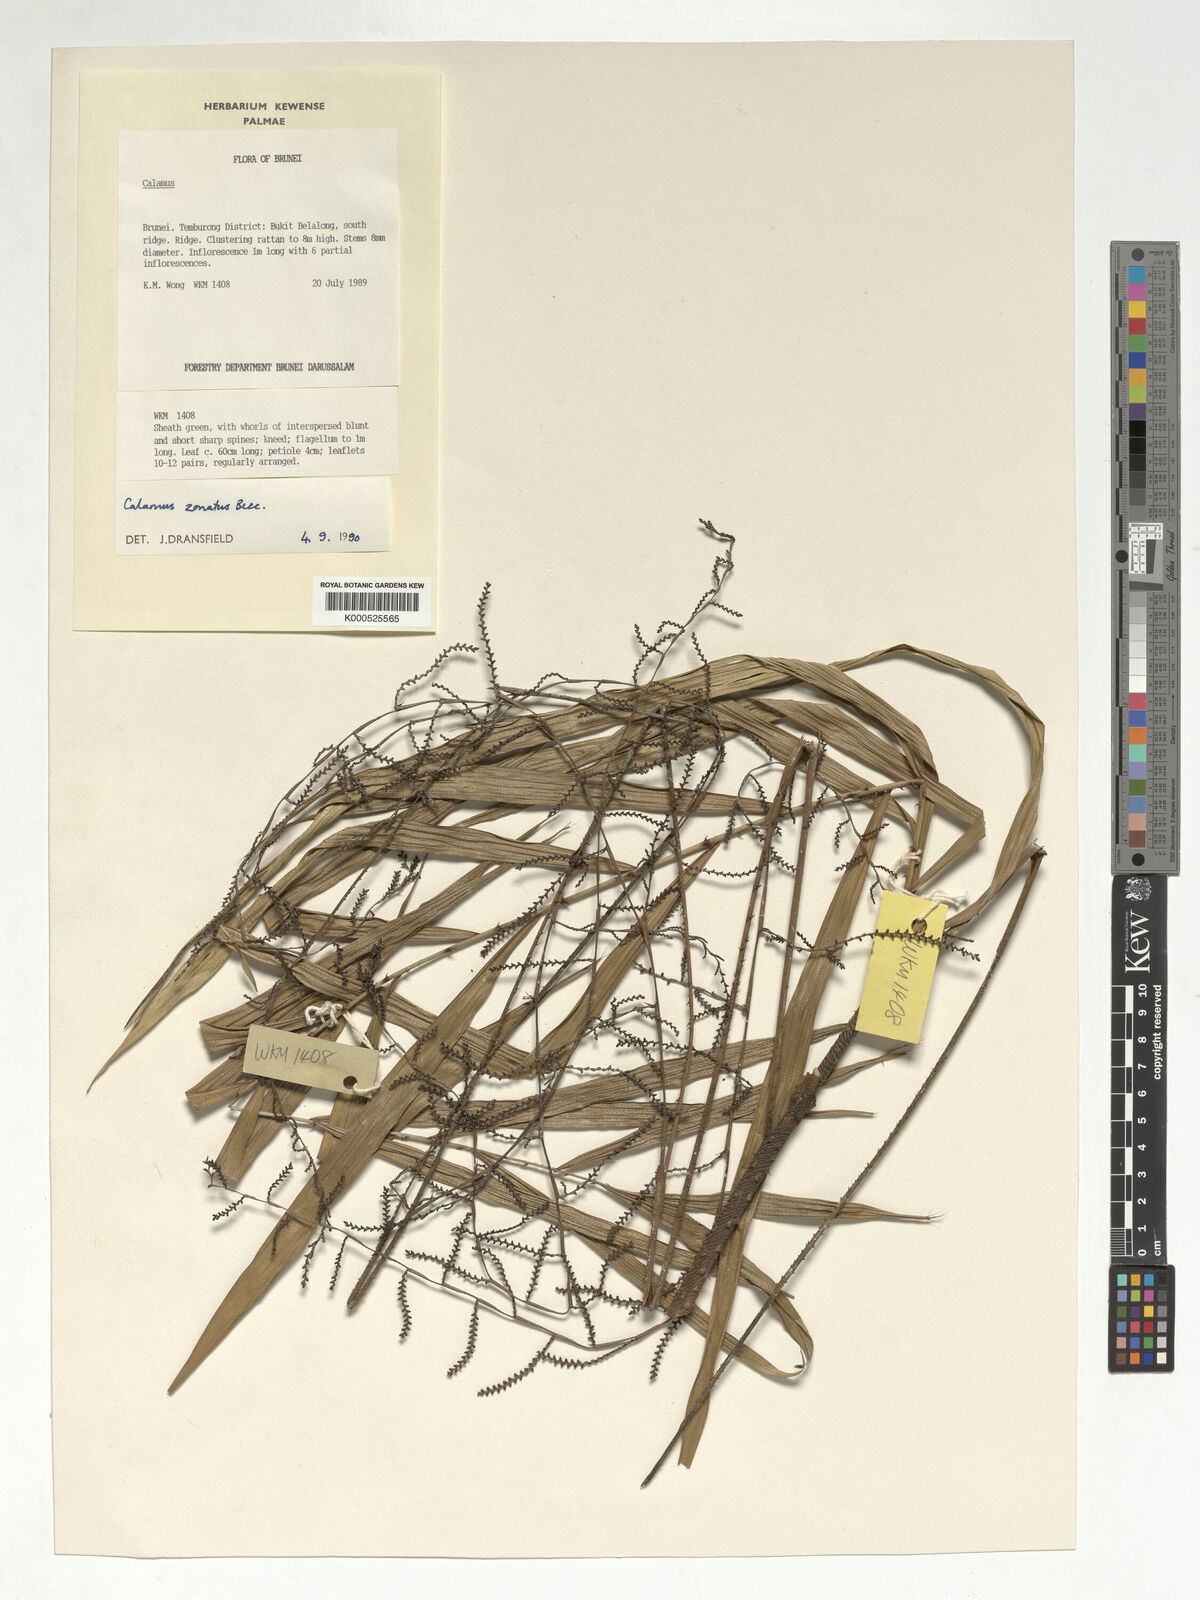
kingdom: Plantae
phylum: Tracheophyta
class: Liliopsida
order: Arecales
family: Arecaceae
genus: Calamus
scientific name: Calamus zonatus
